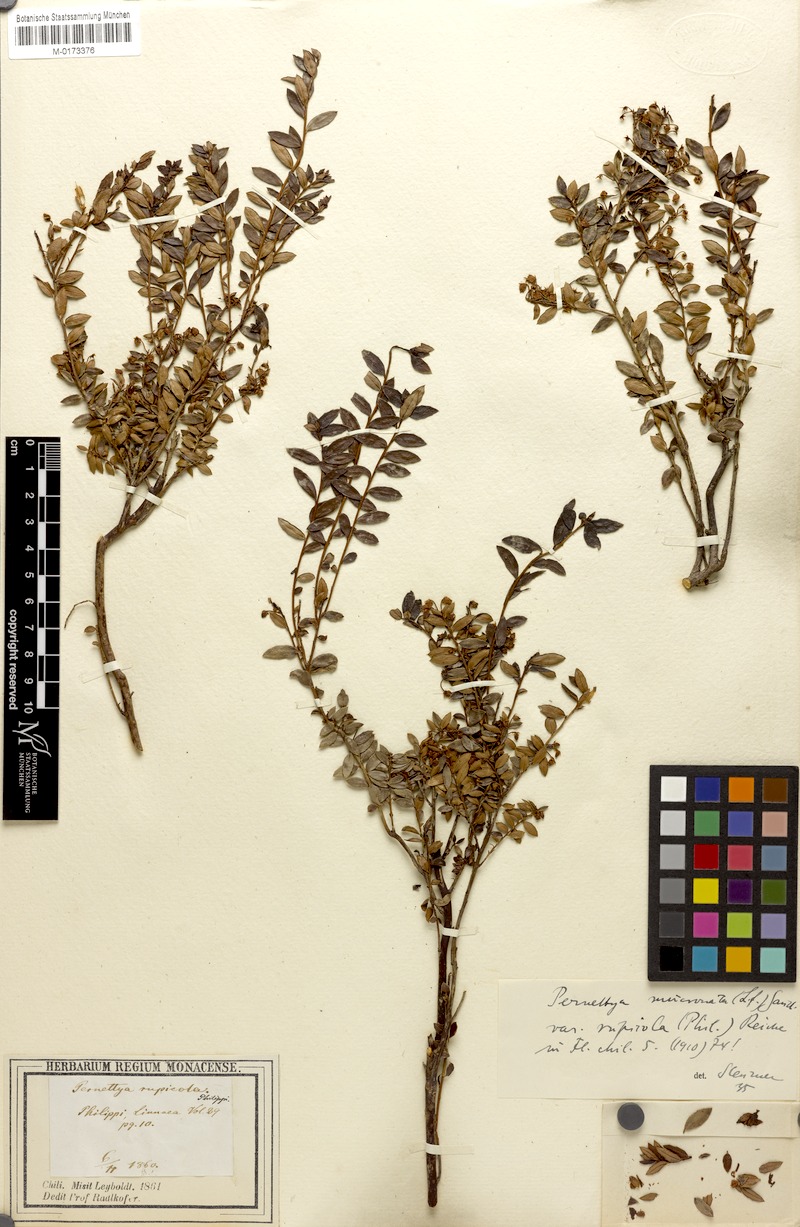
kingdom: Plantae
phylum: Tracheophyta
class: Magnoliopsida
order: Ericales
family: Ericaceae
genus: Gaultheria
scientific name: Gaultheria mucronata
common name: Prickly heath
